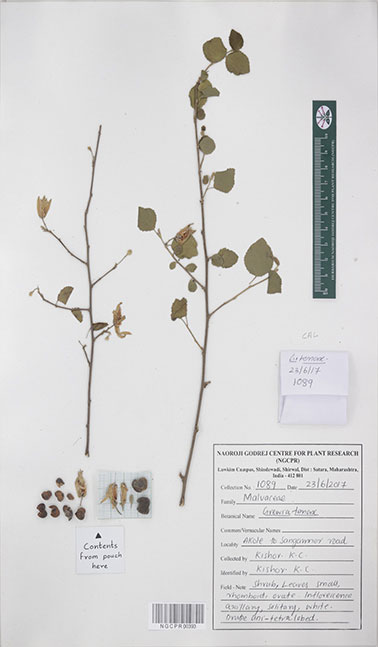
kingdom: Plantae
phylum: Tracheophyta
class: Magnoliopsida
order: Malvales
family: Malvaceae
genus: Grewia
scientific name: Grewia tenax
